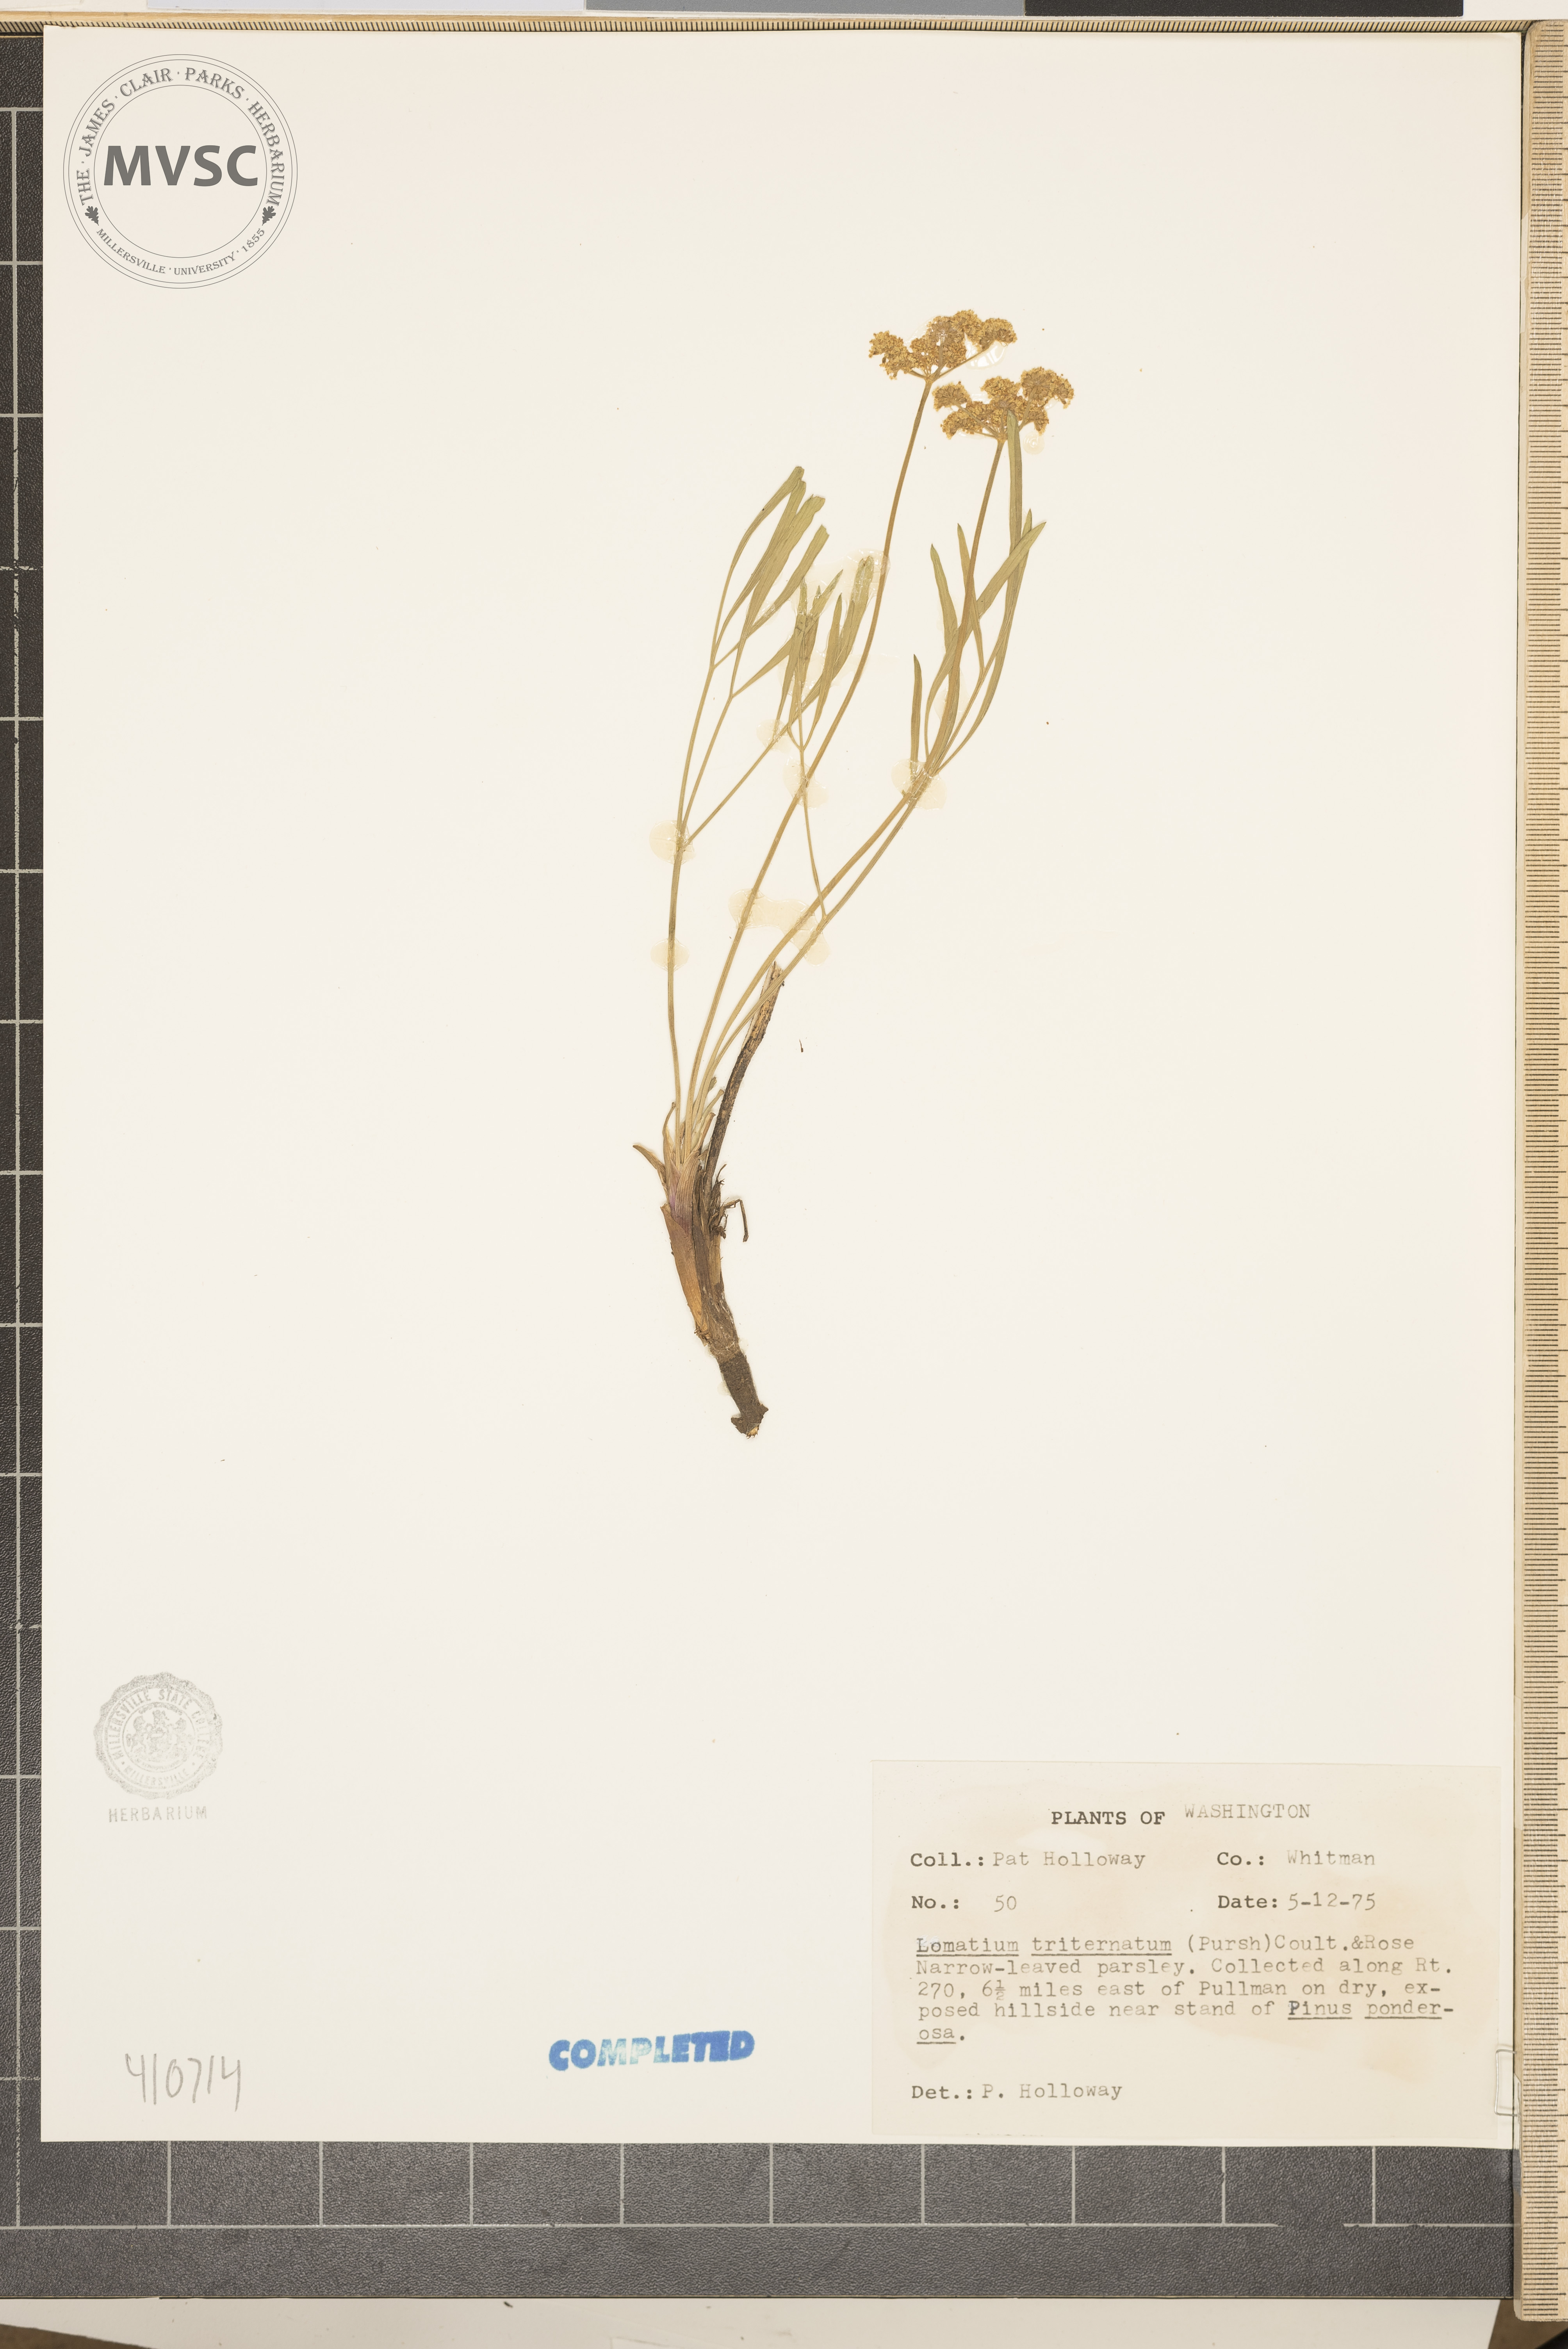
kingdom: Plantae
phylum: Tracheophyta
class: Magnoliopsida
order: Apiales
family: Apiaceae
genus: Lomatium
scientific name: Lomatium triternatum
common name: Ternate lomatium
